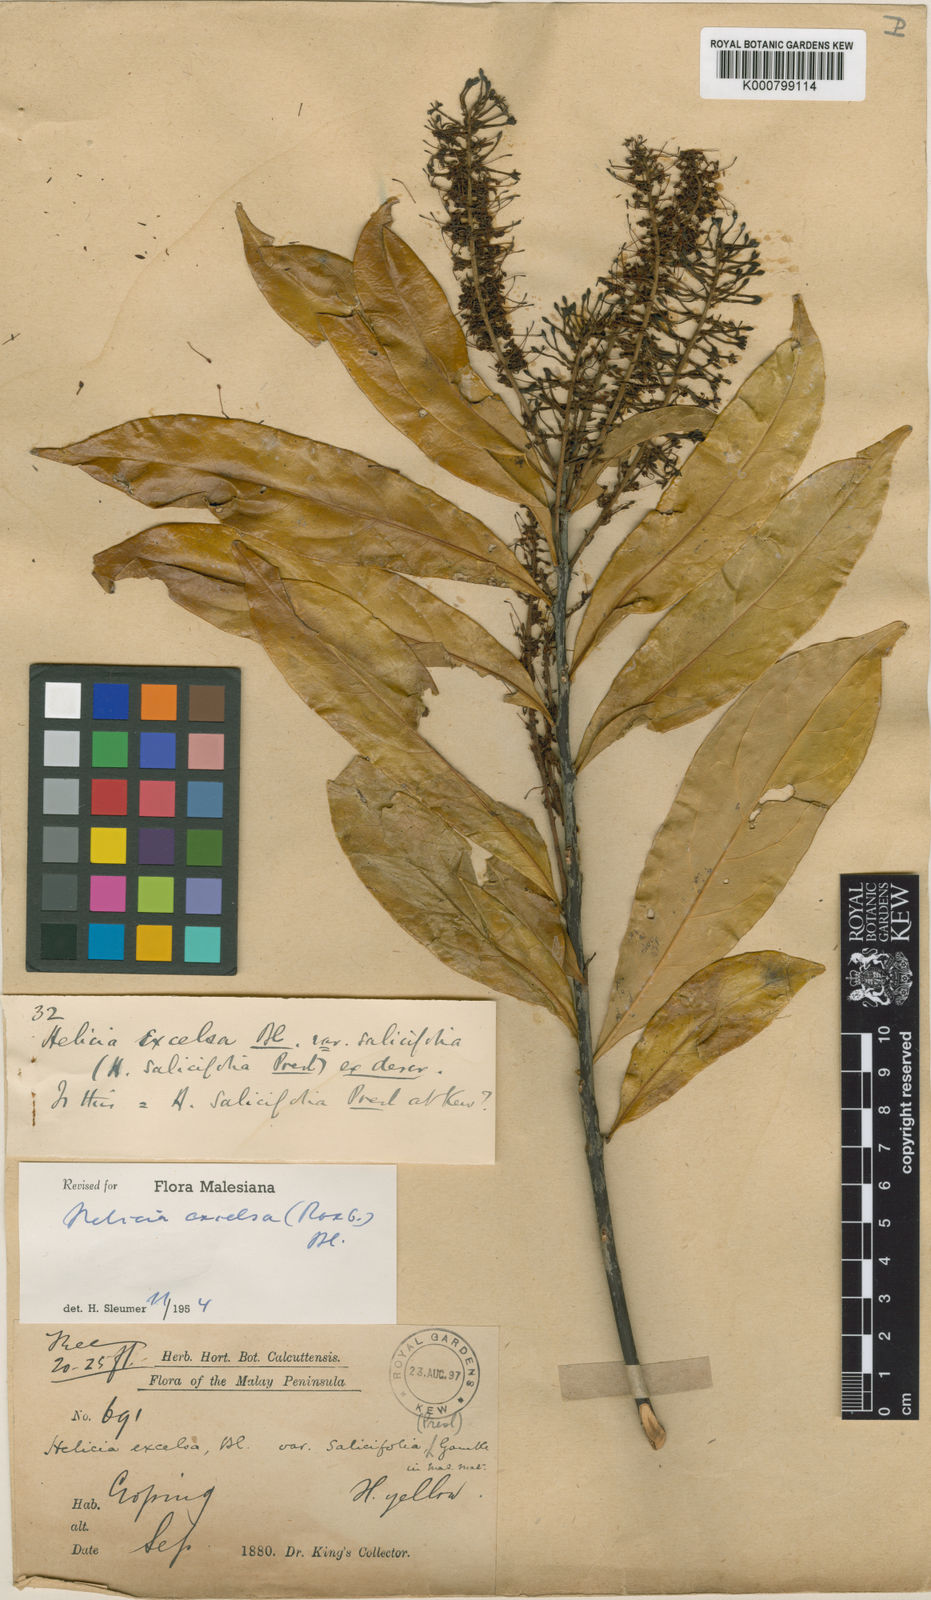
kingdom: Plantae
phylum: Tracheophyta
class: Magnoliopsida
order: Proteales
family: Proteaceae
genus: Helicia
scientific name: Helicia excelsa
